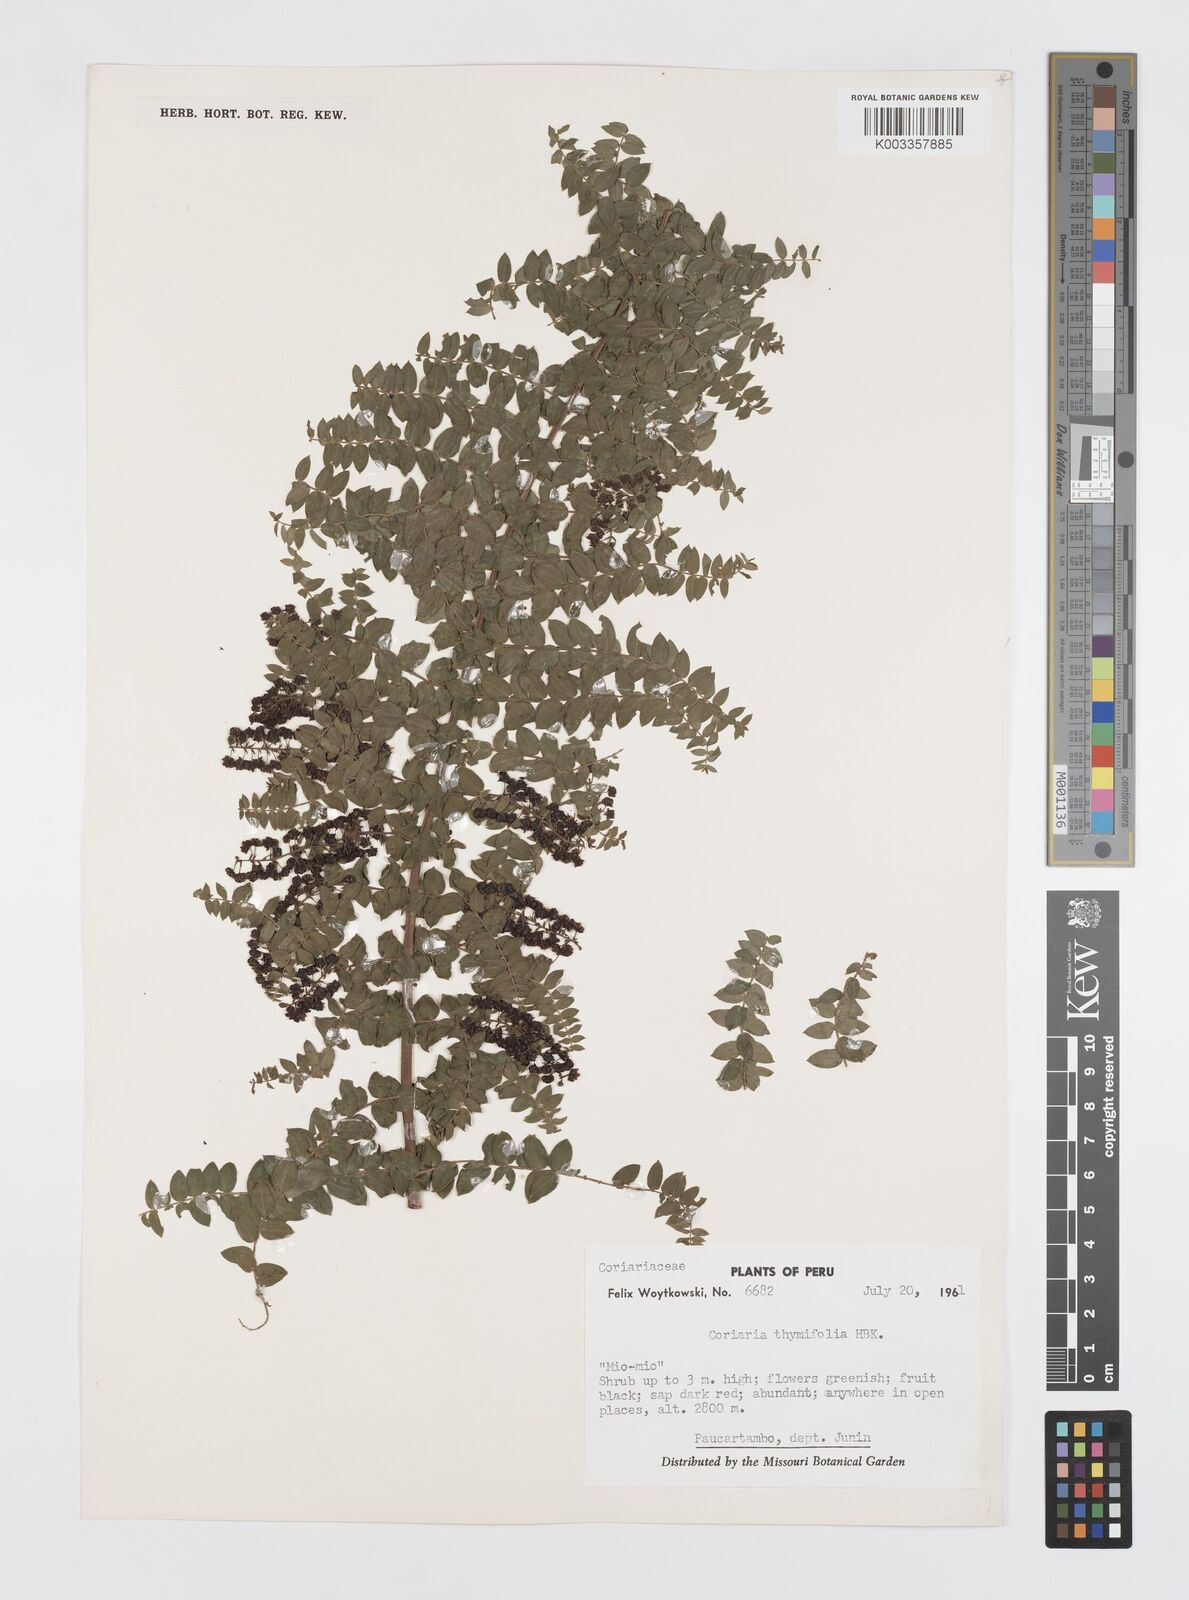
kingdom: Plantae
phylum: Tracheophyta
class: Magnoliopsida
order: Cucurbitales
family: Coriariaceae
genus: Coriaria
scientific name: Coriaria microphylla
